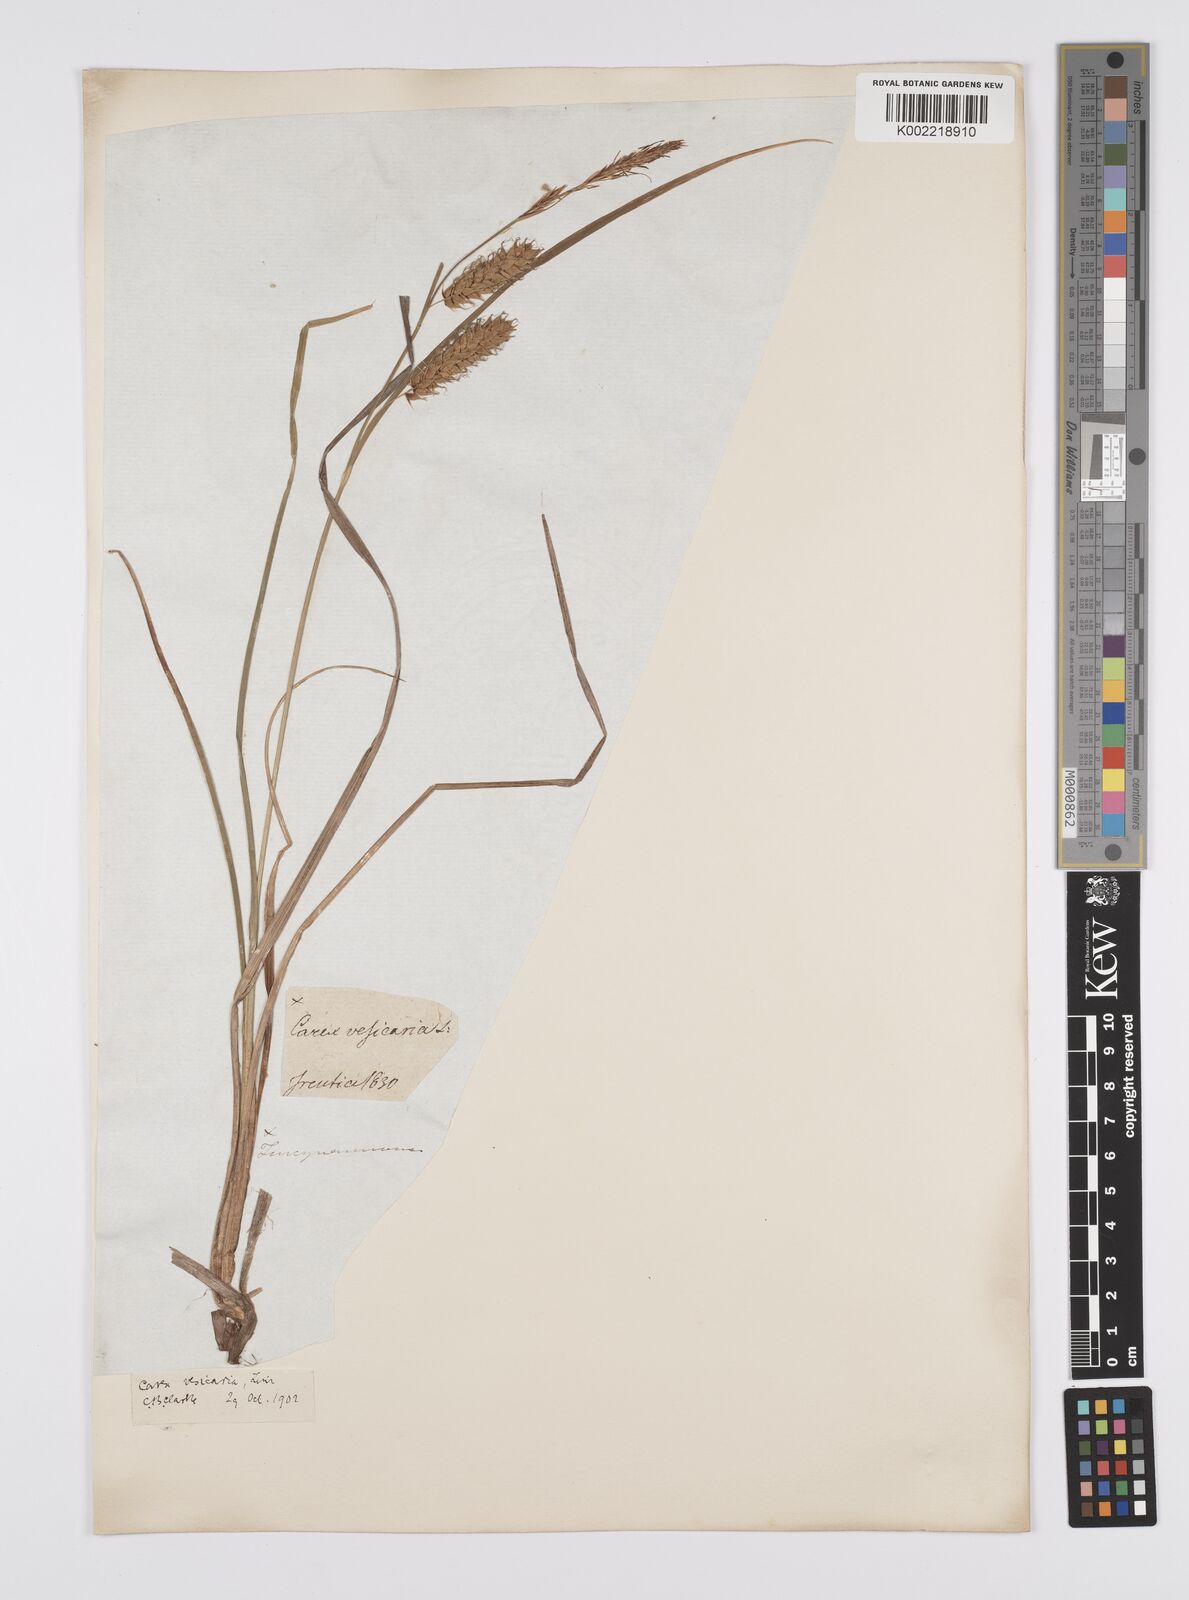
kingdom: Plantae
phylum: Tracheophyta
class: Liliopsida
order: Poales
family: Cyperaceae
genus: Carex
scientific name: Carex vesicaria
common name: Bladder-sedge
